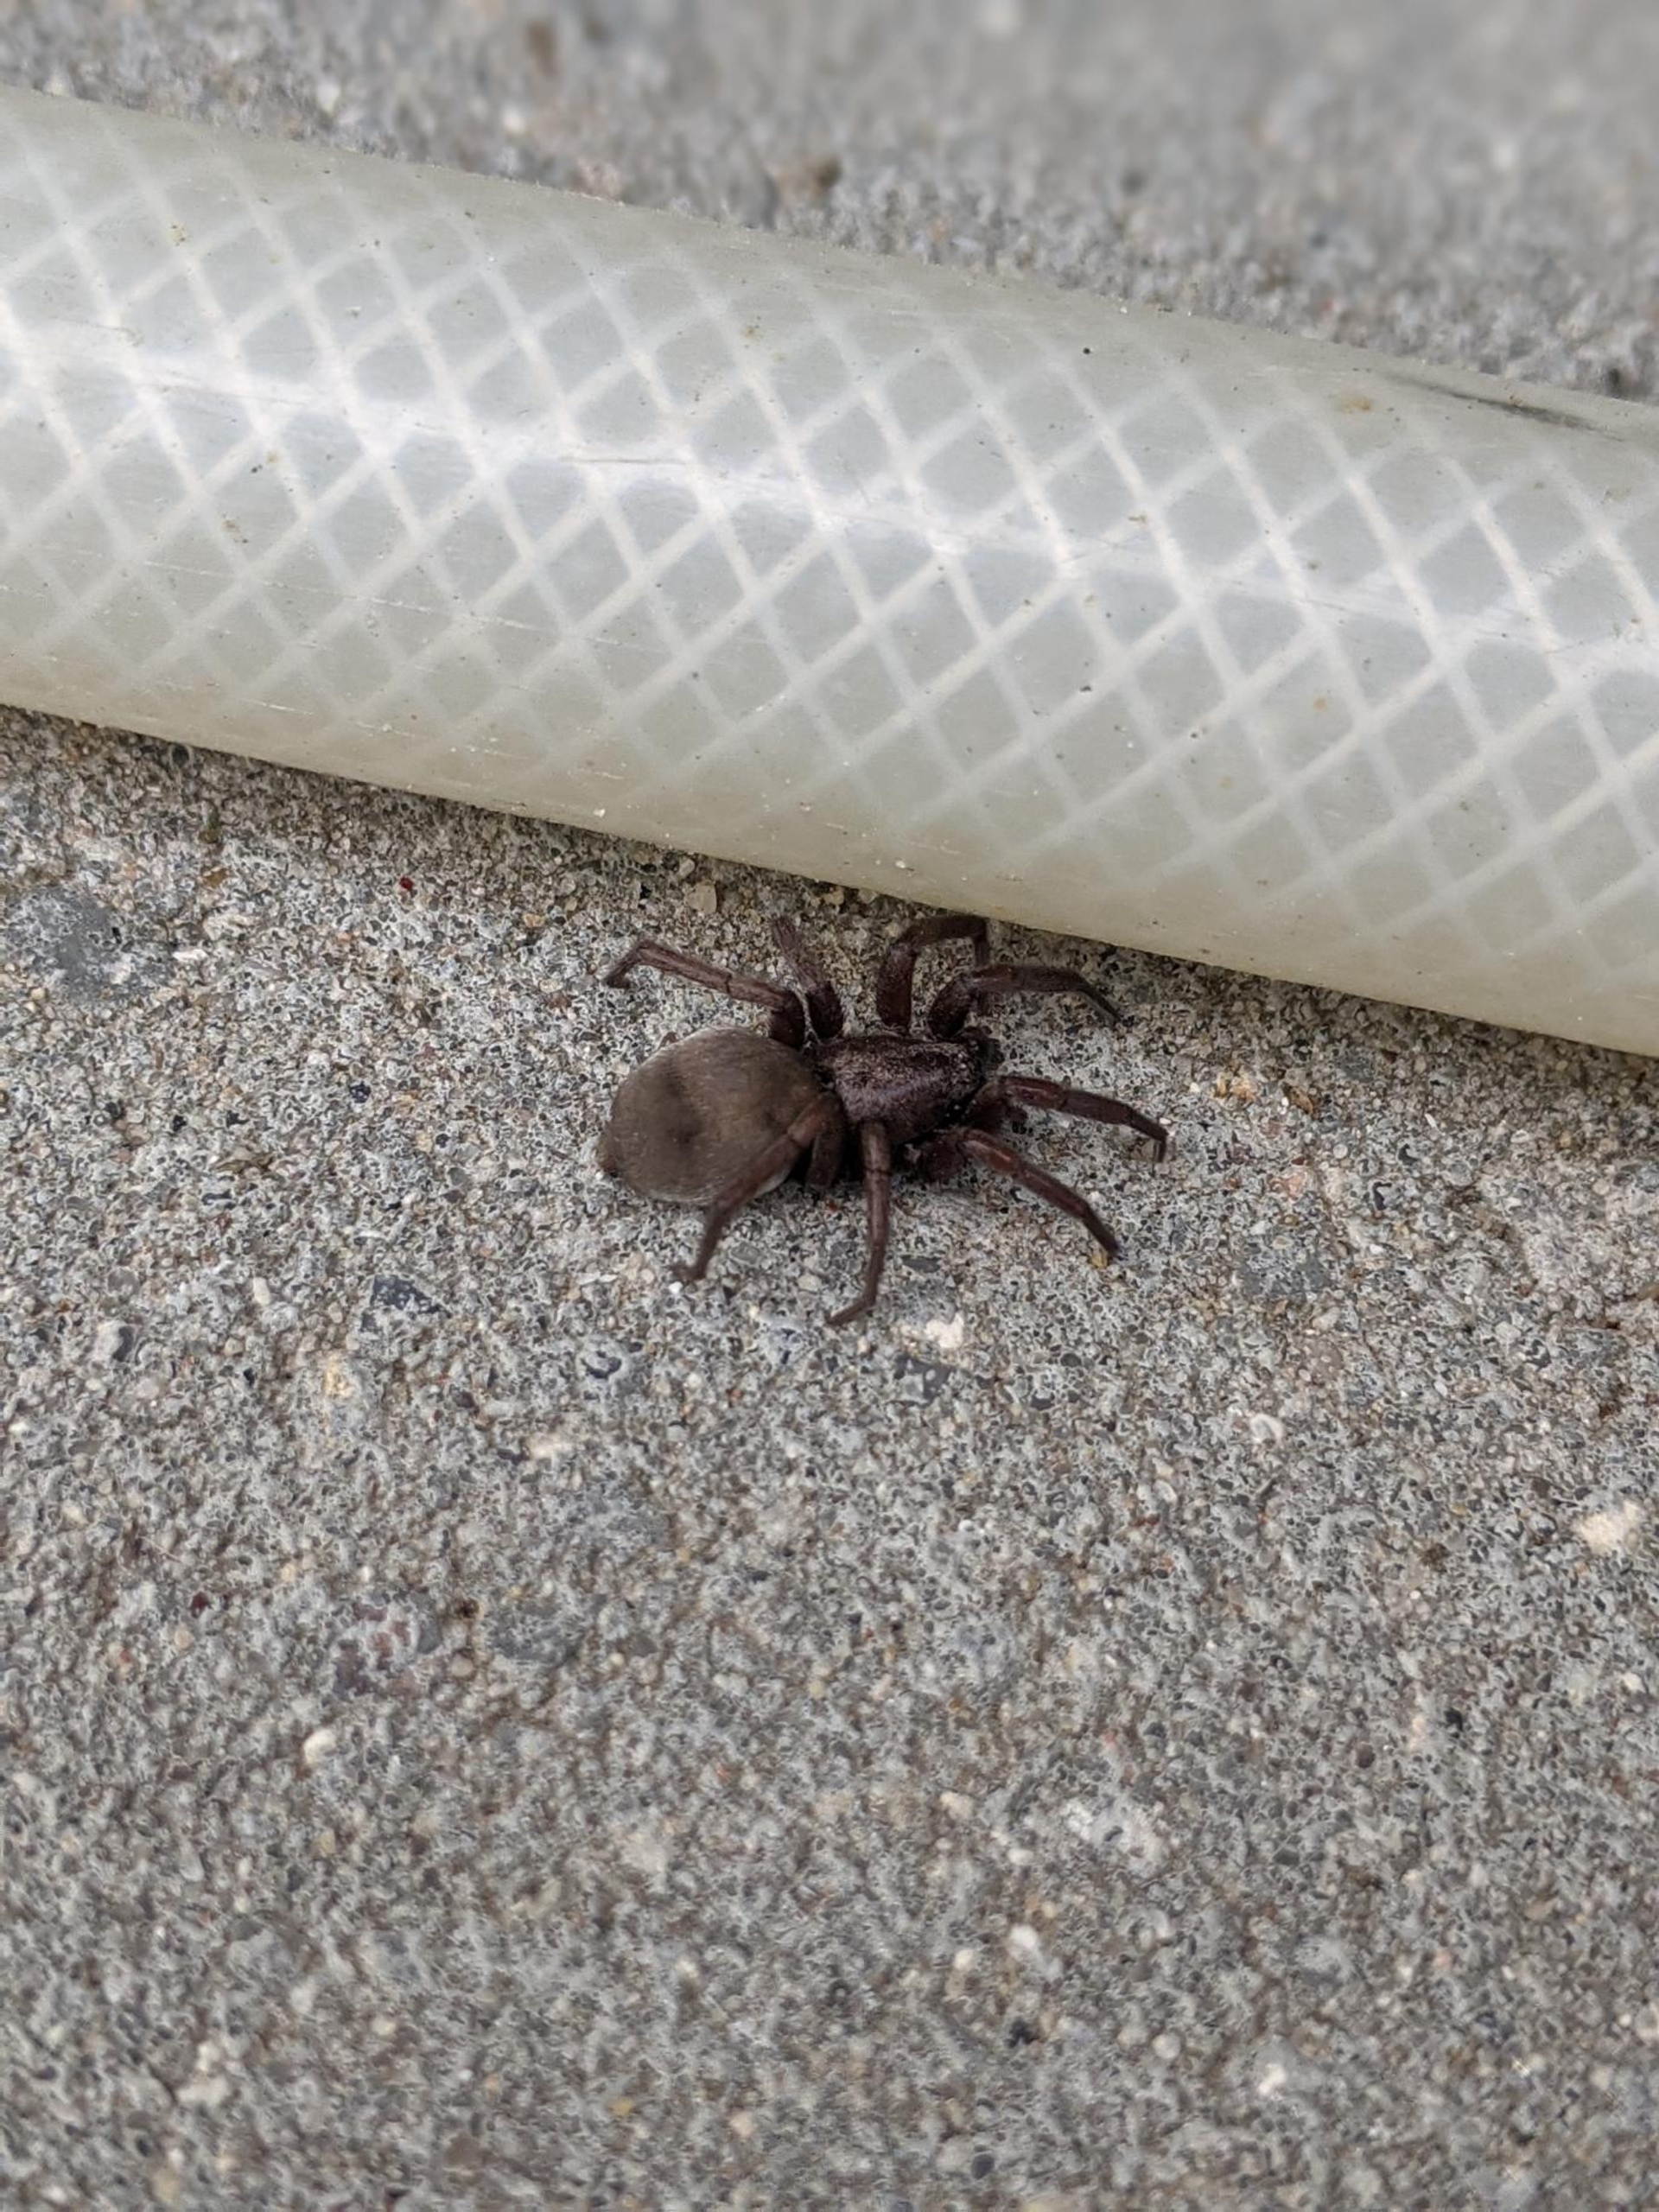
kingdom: Animalia
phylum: Arthropoda
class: Arachnida
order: Araneae
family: Gnaphosidae
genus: Scotophaeus
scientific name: Scotophaeus
